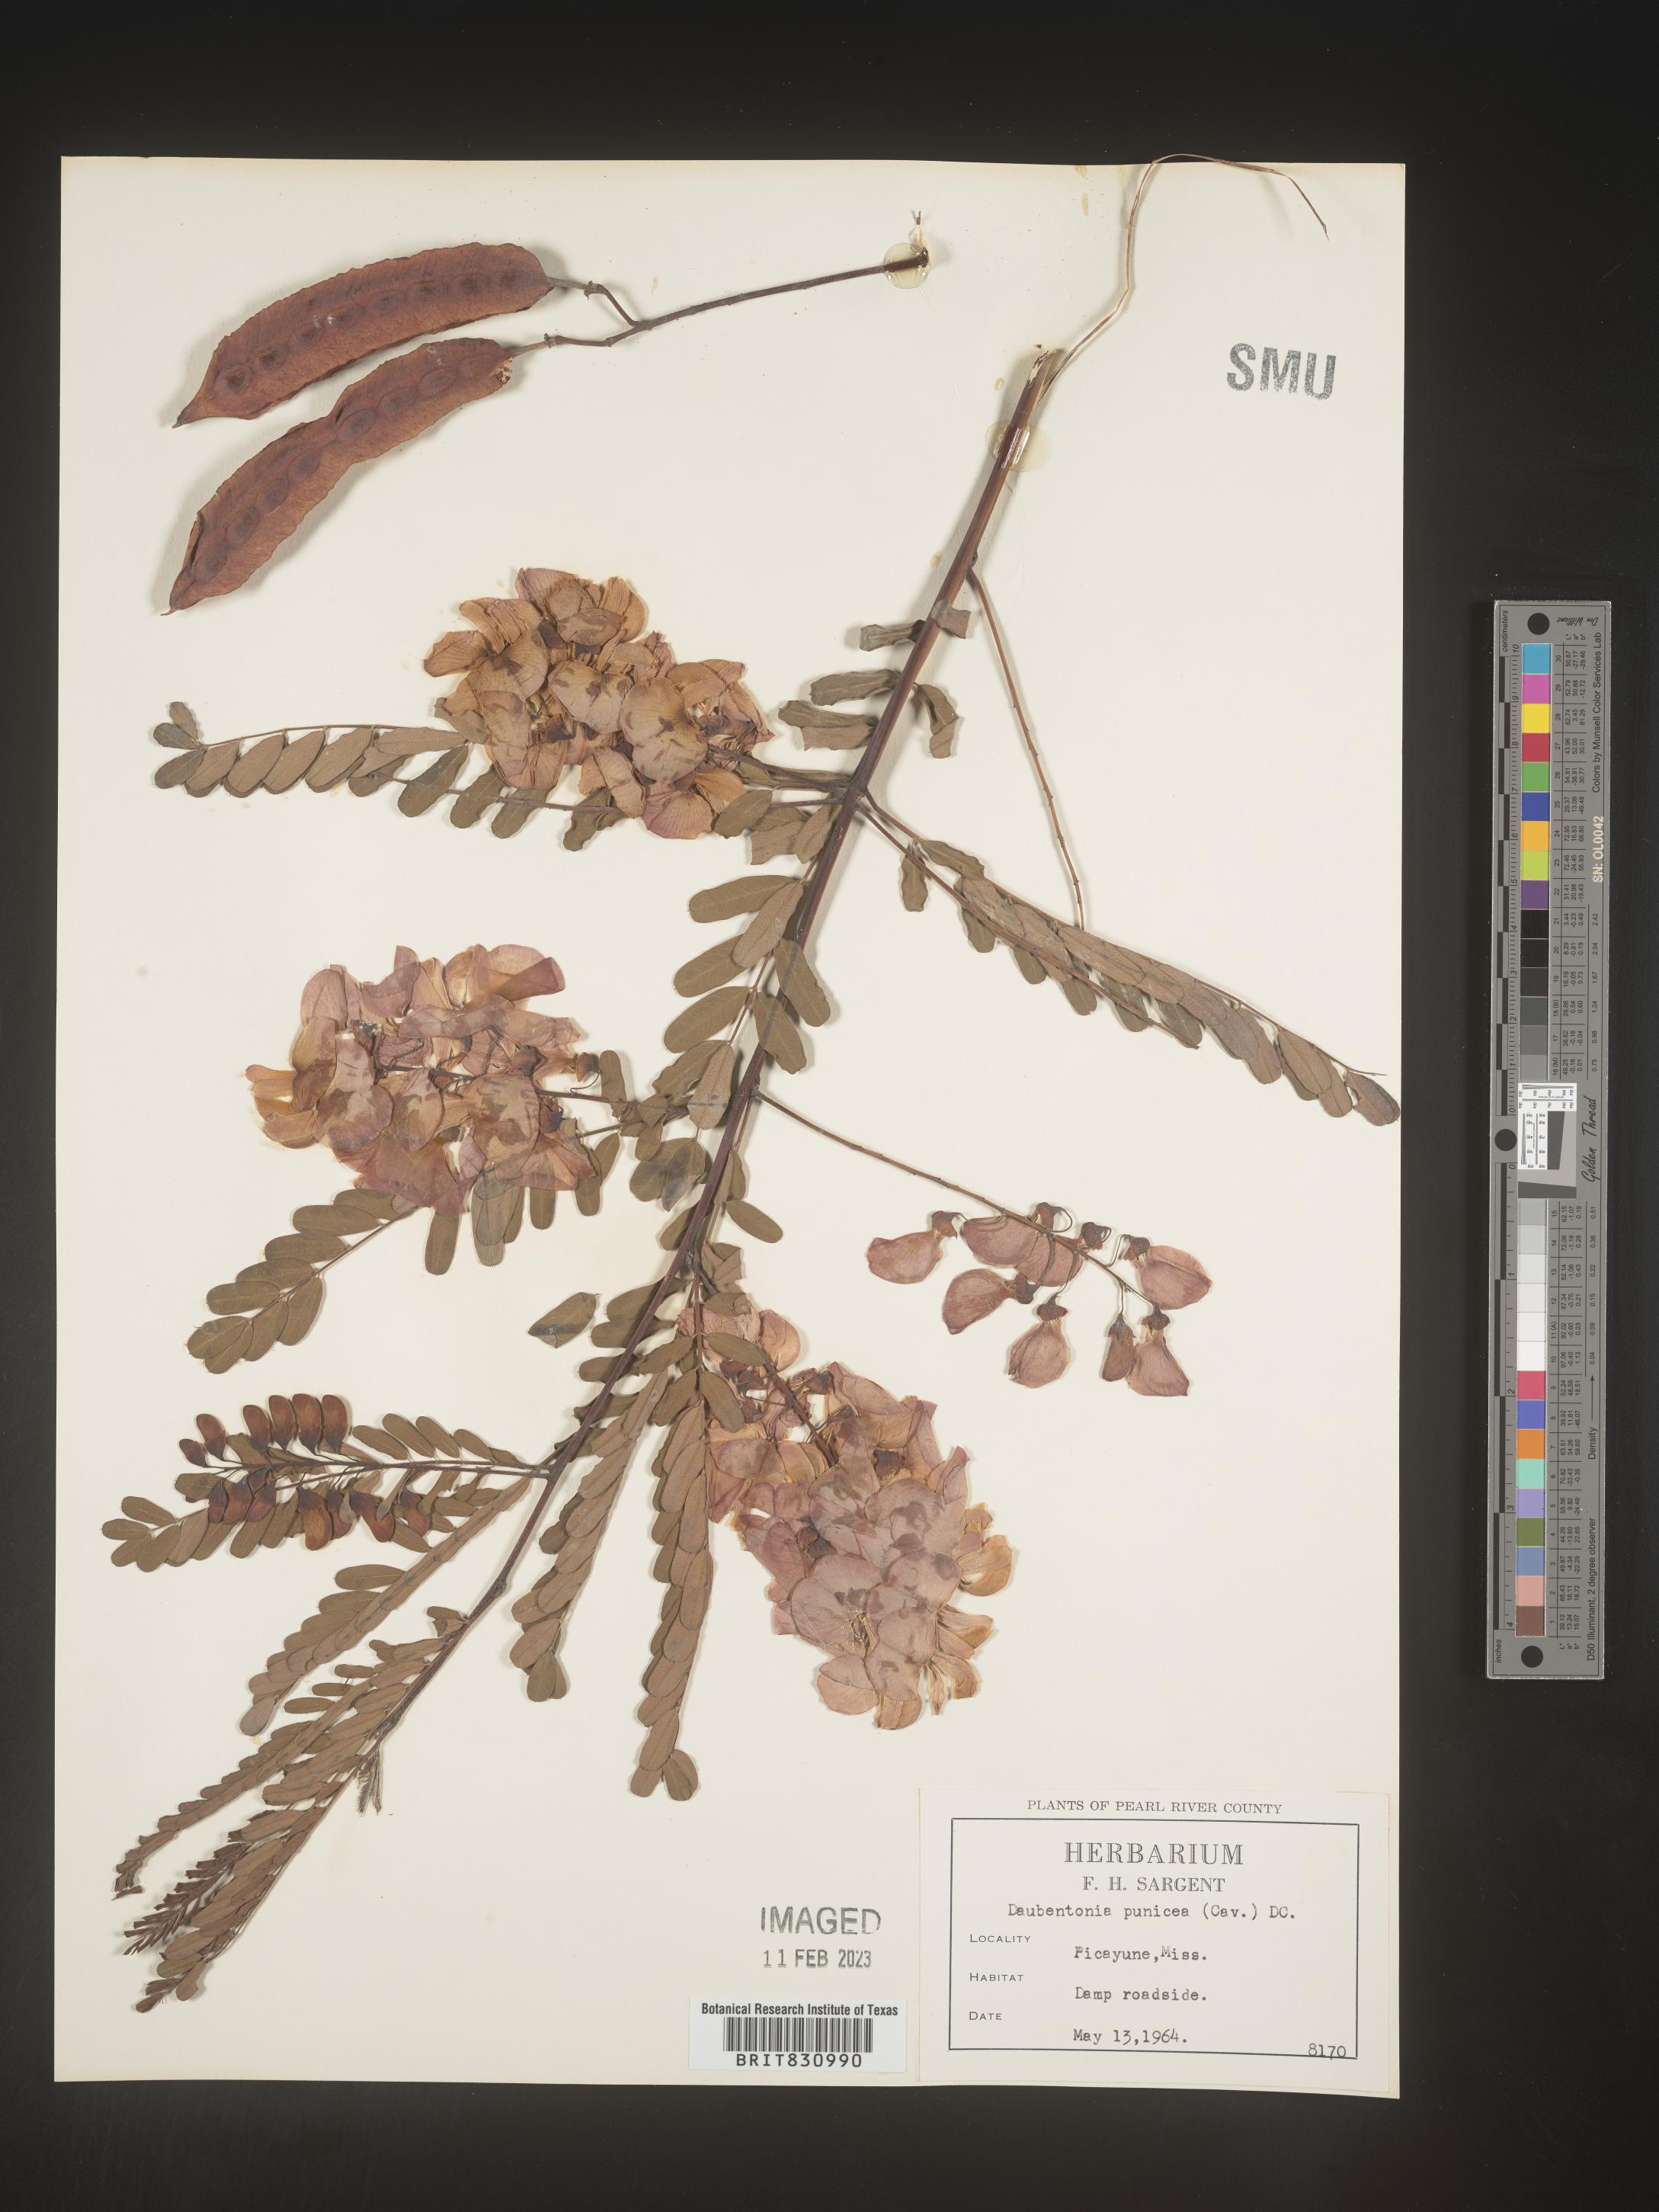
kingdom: Plantae
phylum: Tracheophyta
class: Magnoliopsida
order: Fabales
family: Fabaceae
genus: Sesbania
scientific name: Sesbania punicea
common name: Rattlebox
